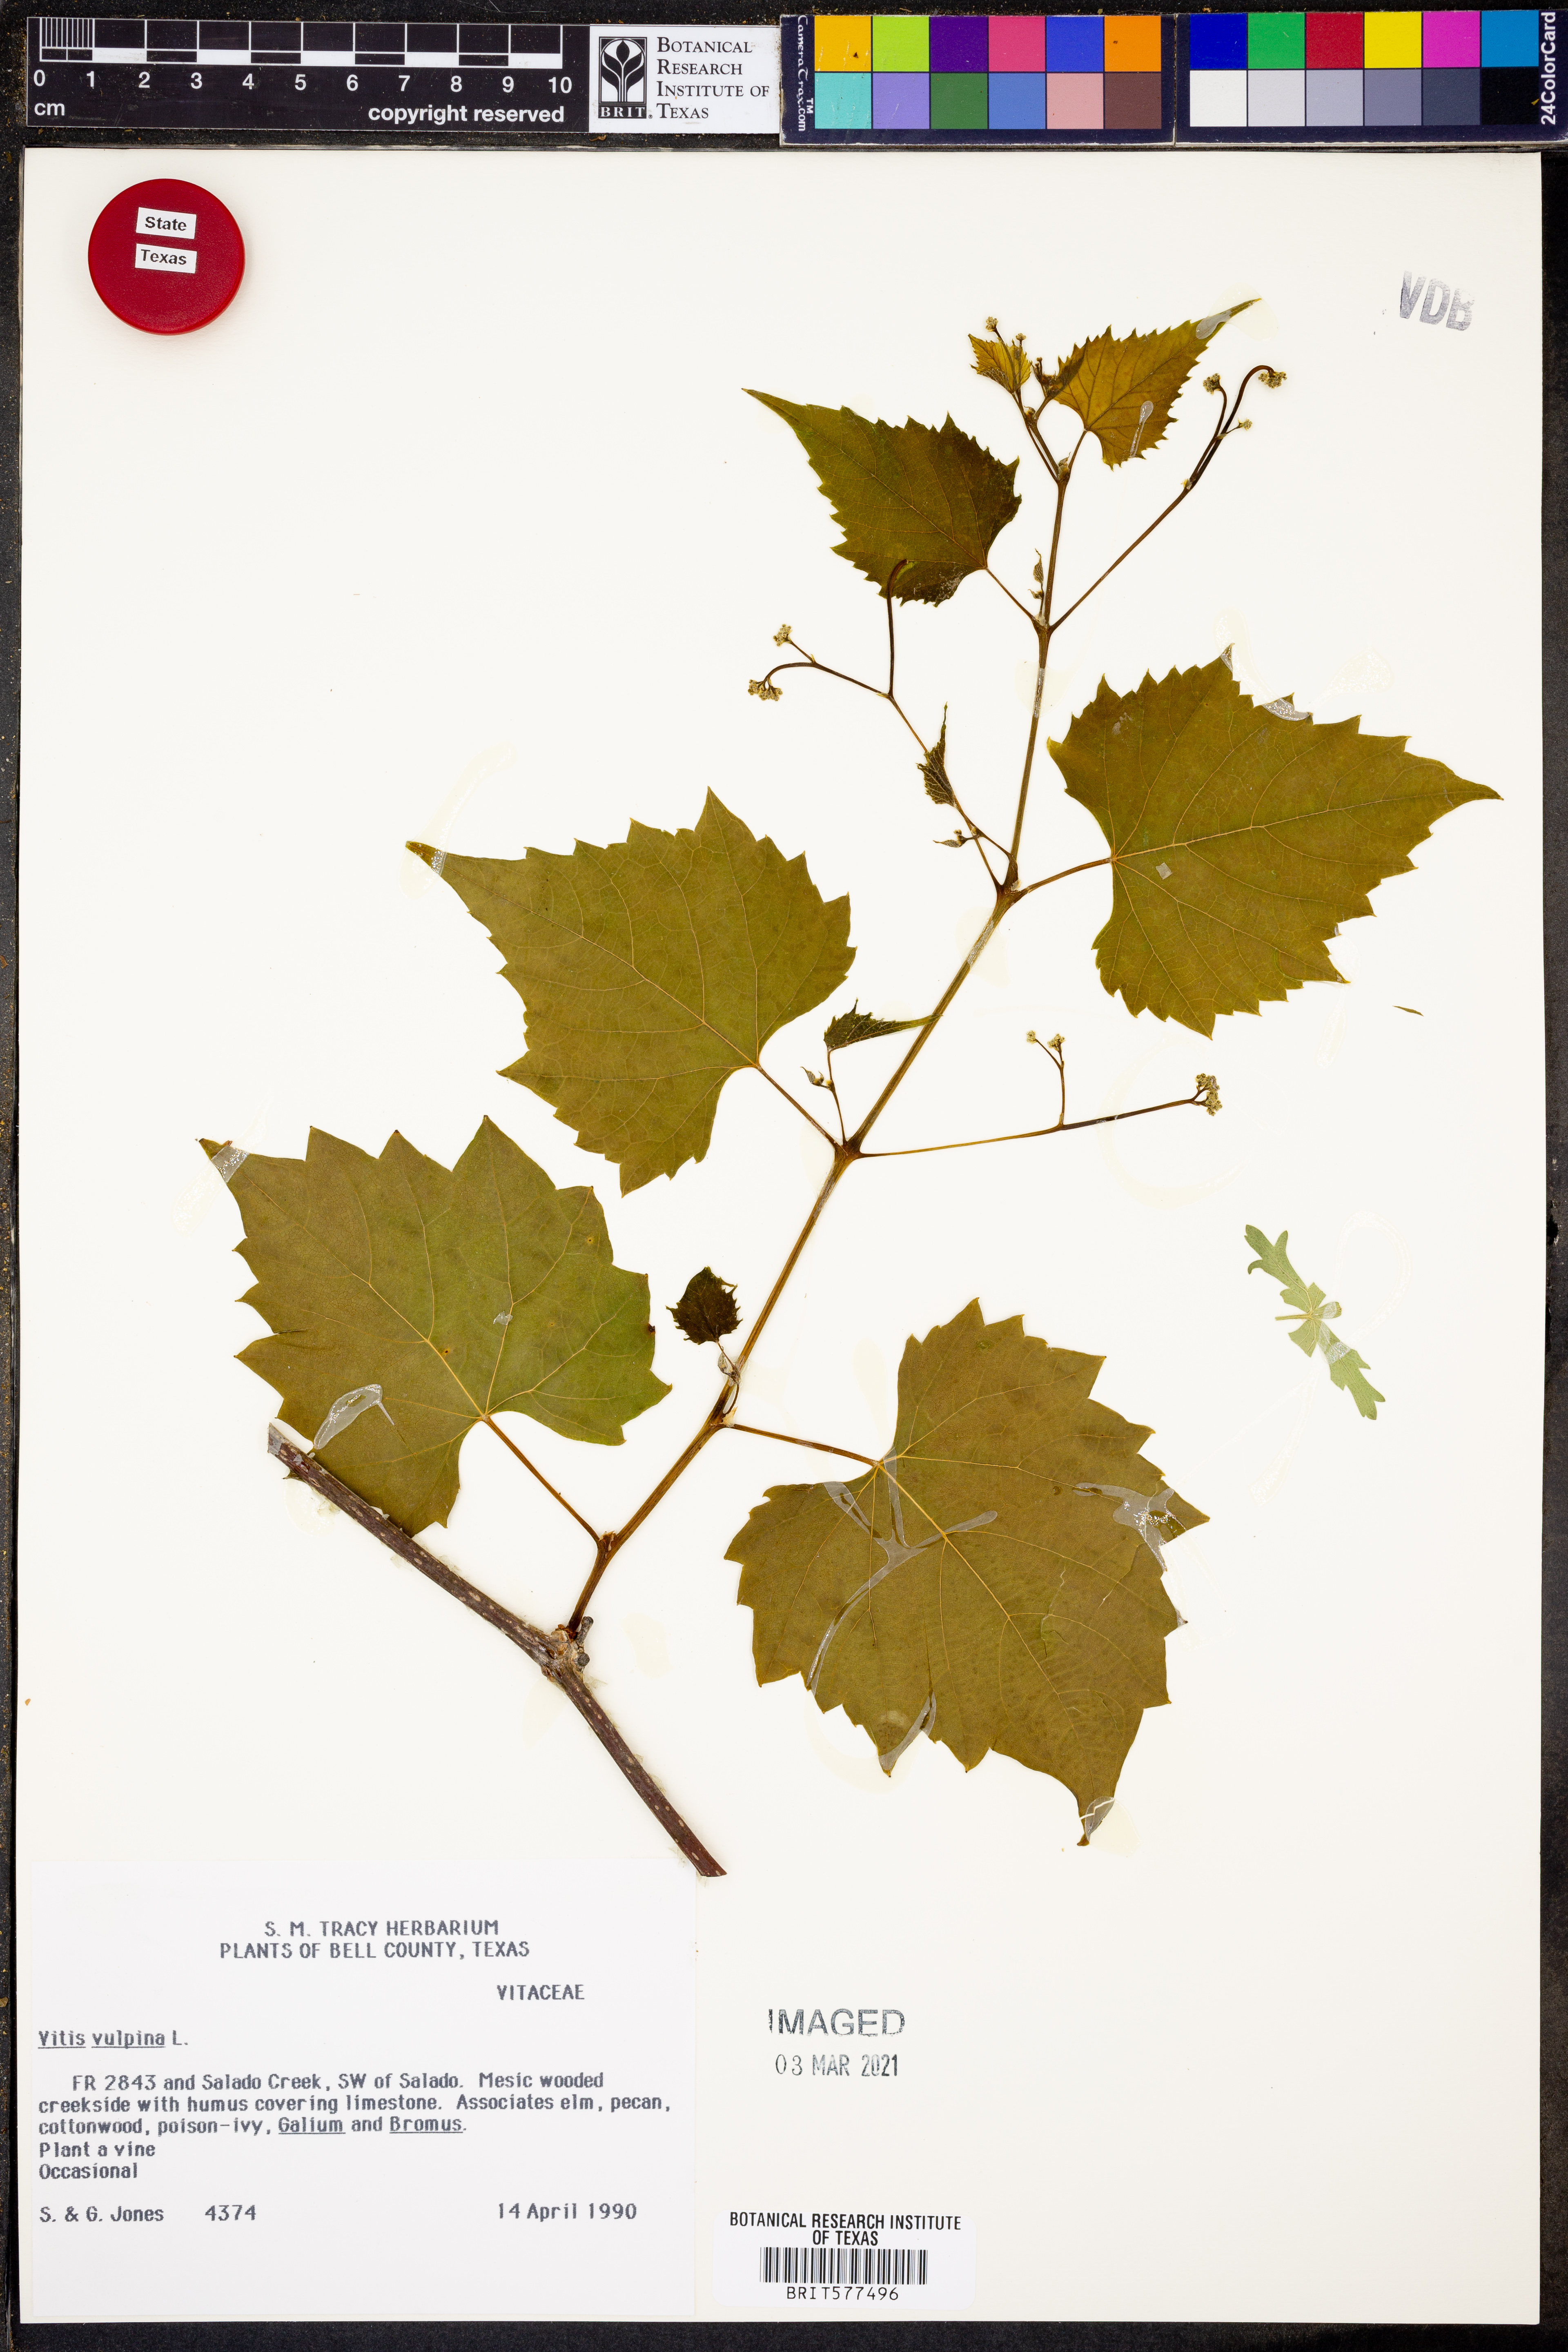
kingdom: Plantae
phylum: Tracheophyta
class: Magnoliopsida
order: Vitales
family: Vitaceae
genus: Vitis
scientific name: Vitis vulpina
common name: Frost grape
